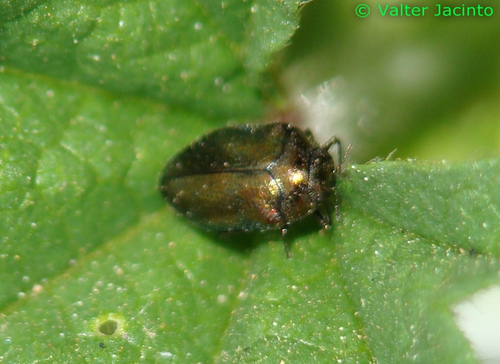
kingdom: Animalia
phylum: Arthropoda
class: Insecta
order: Coleoptera
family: Buprestidae
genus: Trachys
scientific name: Trachys pumilus
